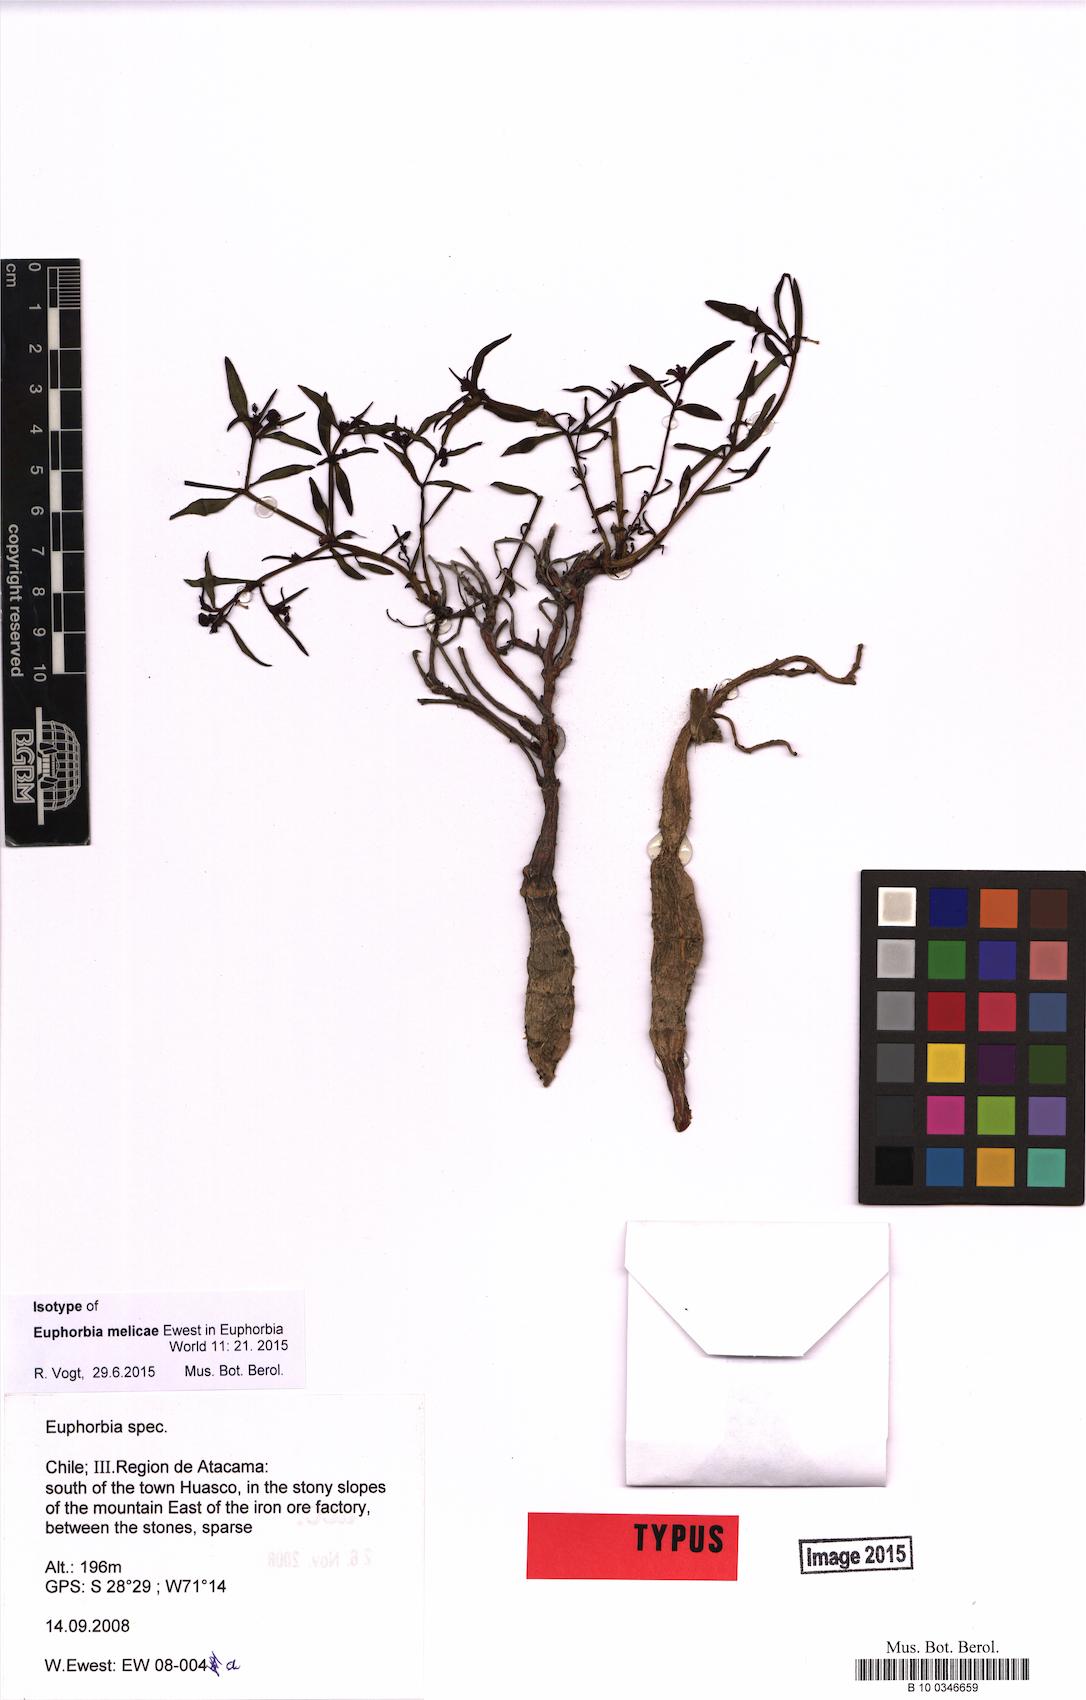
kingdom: Plantae
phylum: Tracheophyta
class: Magnoliopsida
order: Malpighiales
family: Euphorbiaceae
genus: Euphorbia
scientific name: Euphorbia melicae
